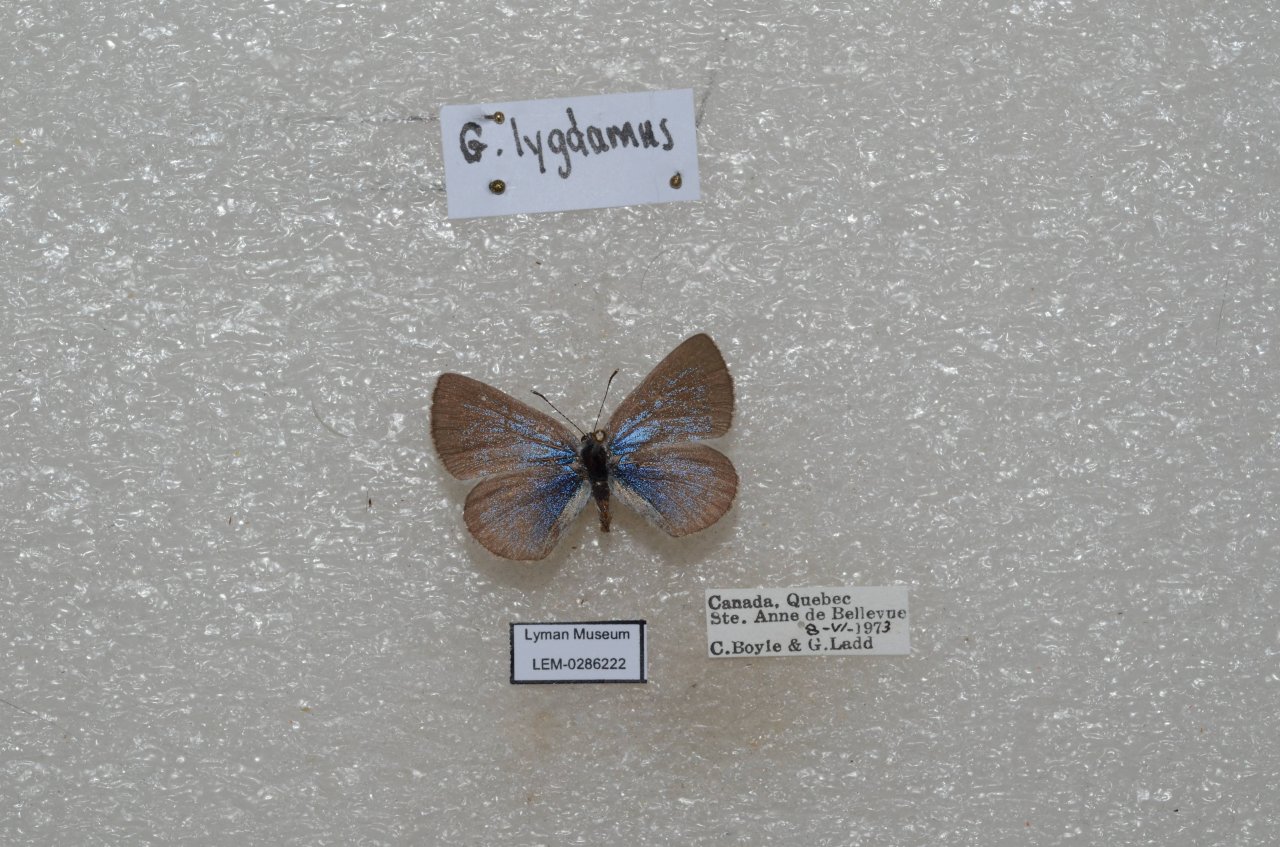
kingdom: Animalia
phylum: Arthropoda
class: Insecta
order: Lepidoptera
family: Lycaenidae
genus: Glaucopsyche
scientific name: Glaucopsyche lygdamus
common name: Silvery Blue
